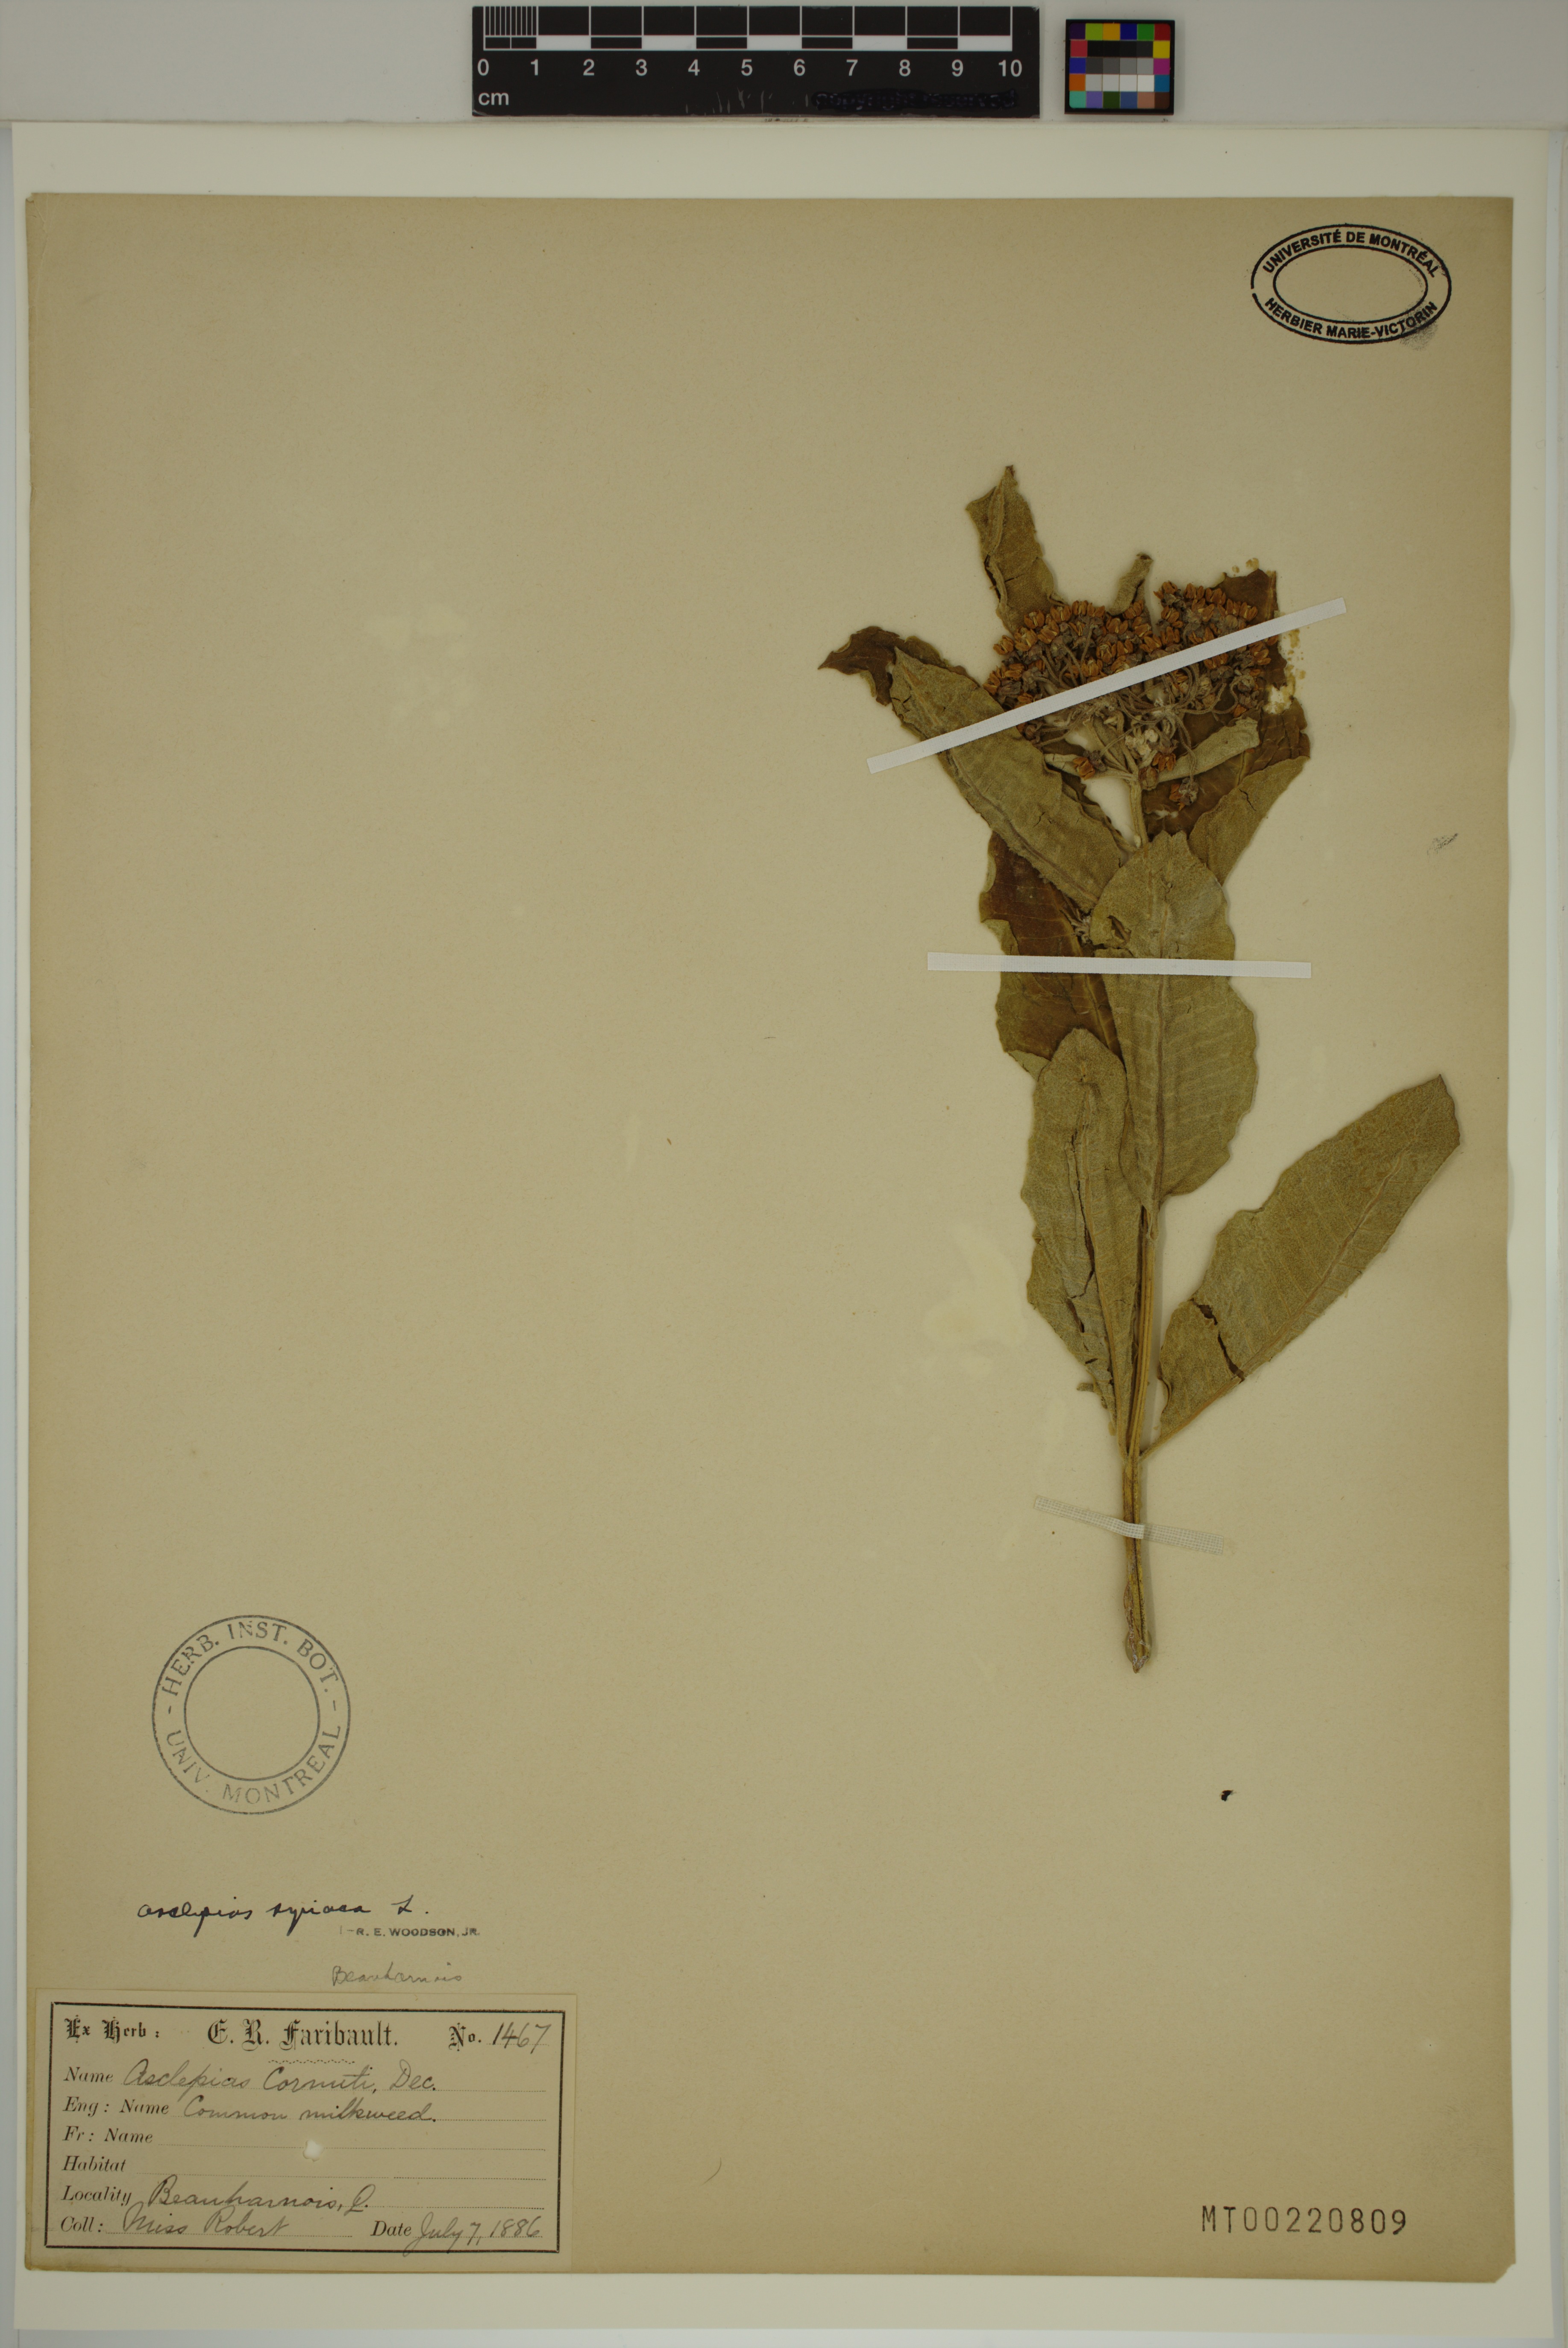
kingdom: Plantae
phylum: Tracheophyta
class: Magnoliopsida
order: Gentianales
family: Apocynaceae
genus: Asclepias
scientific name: Asclepias syriaca
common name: Common milkweed
